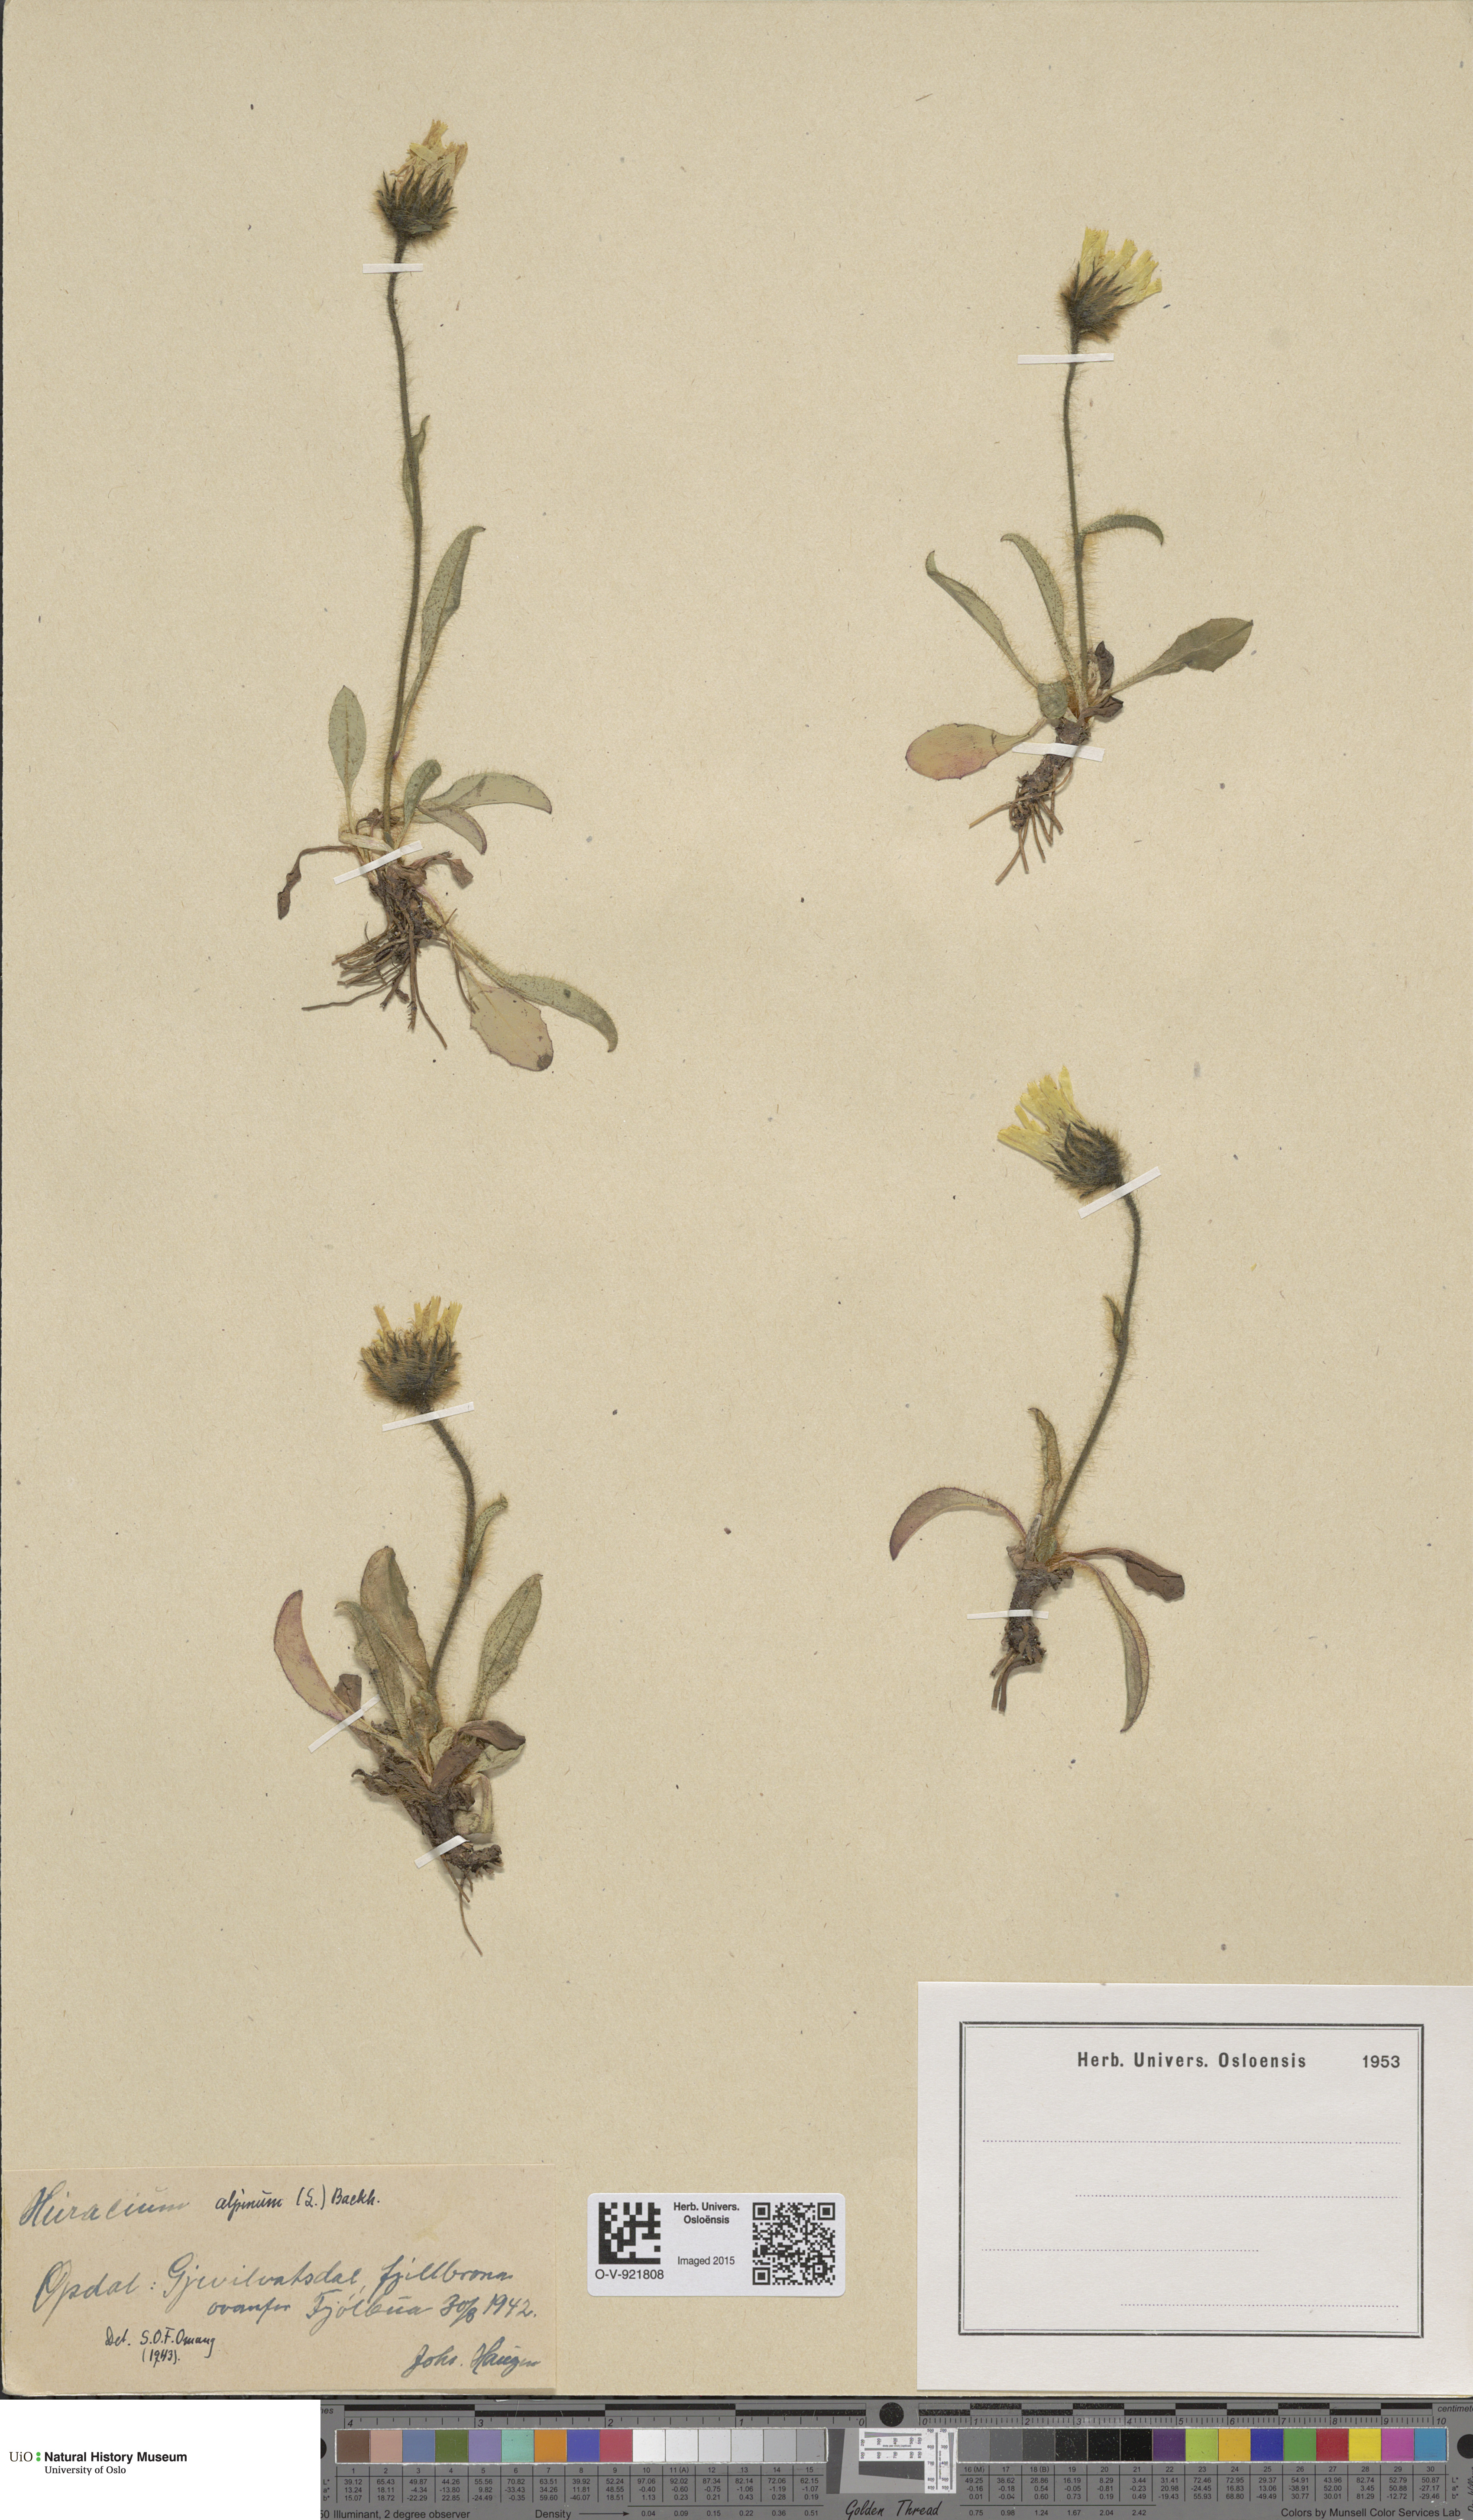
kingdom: Plantae
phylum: Tracheophyta
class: Magnoliopsida
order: Asterales
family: Asteraceae
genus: Hieracium
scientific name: Hieracium alpinum
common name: Alpine hawkweed
